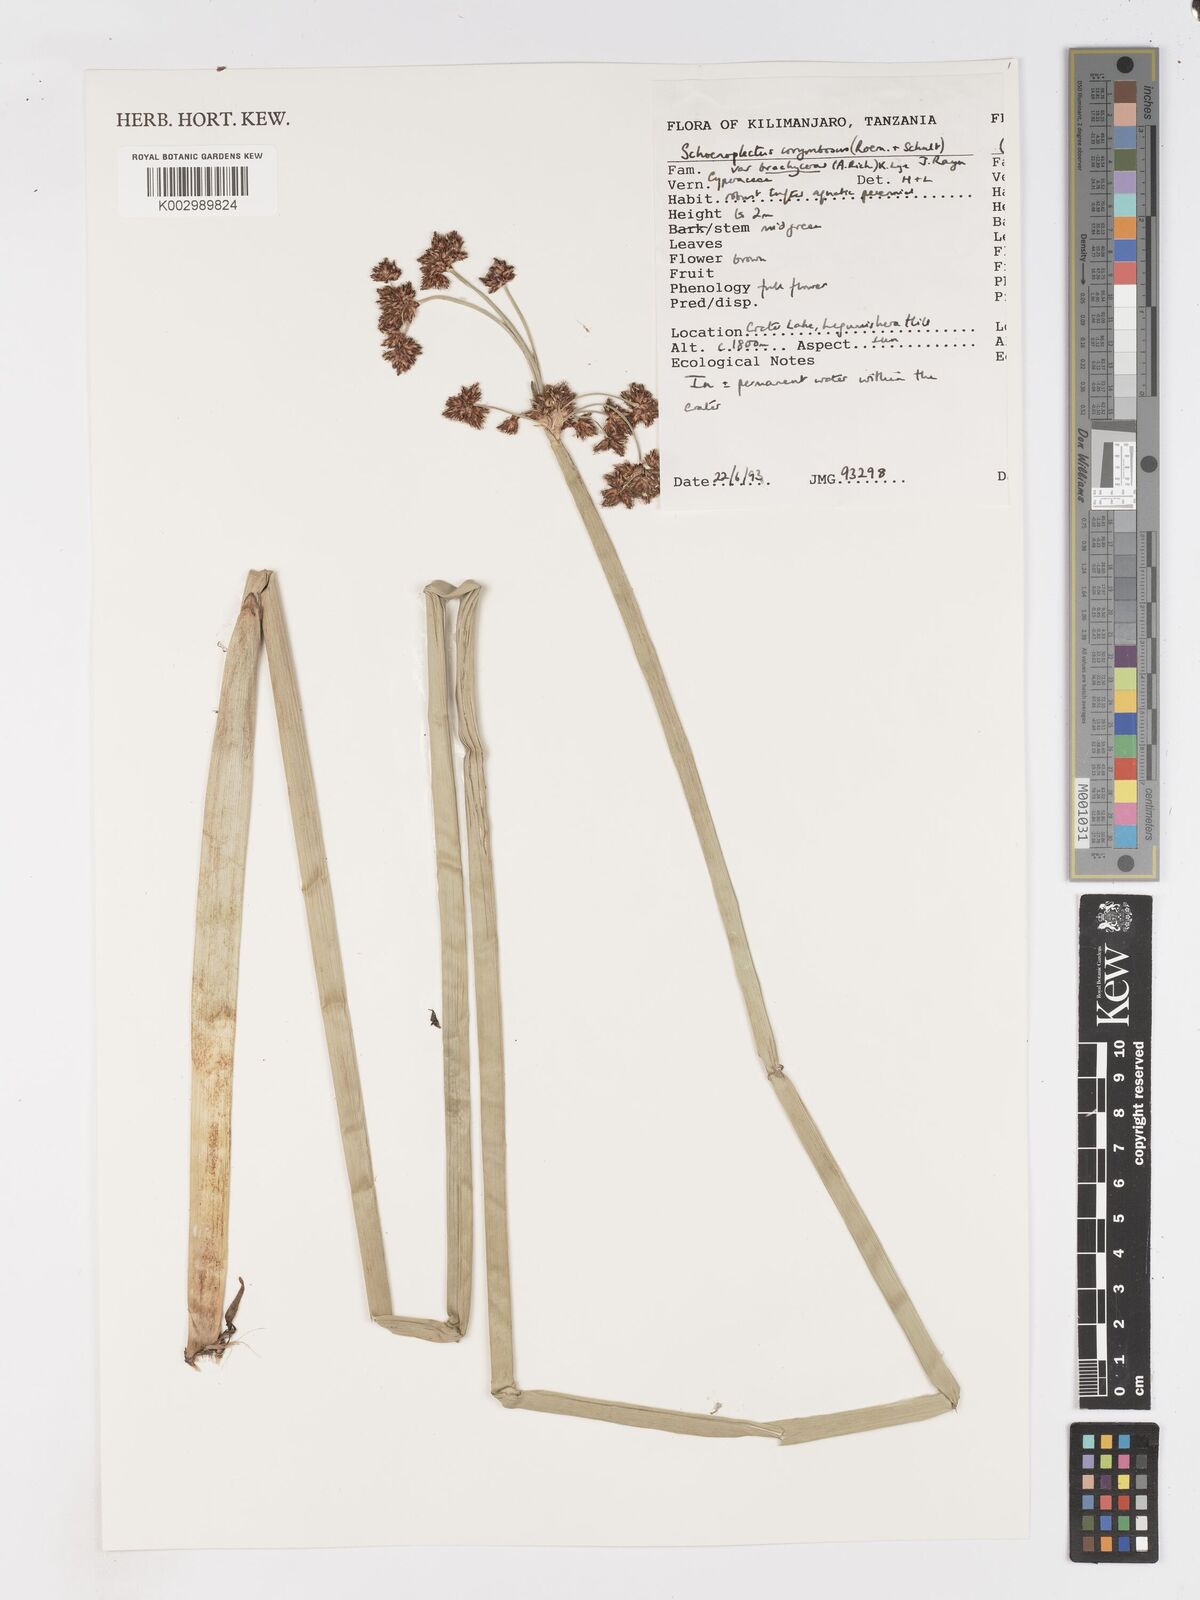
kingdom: Plantae
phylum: Tracheophyta
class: Liliopsida
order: Poales
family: Cyperaceae
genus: Schoenoplectiella
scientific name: Schoenoplectiella brachyceras
